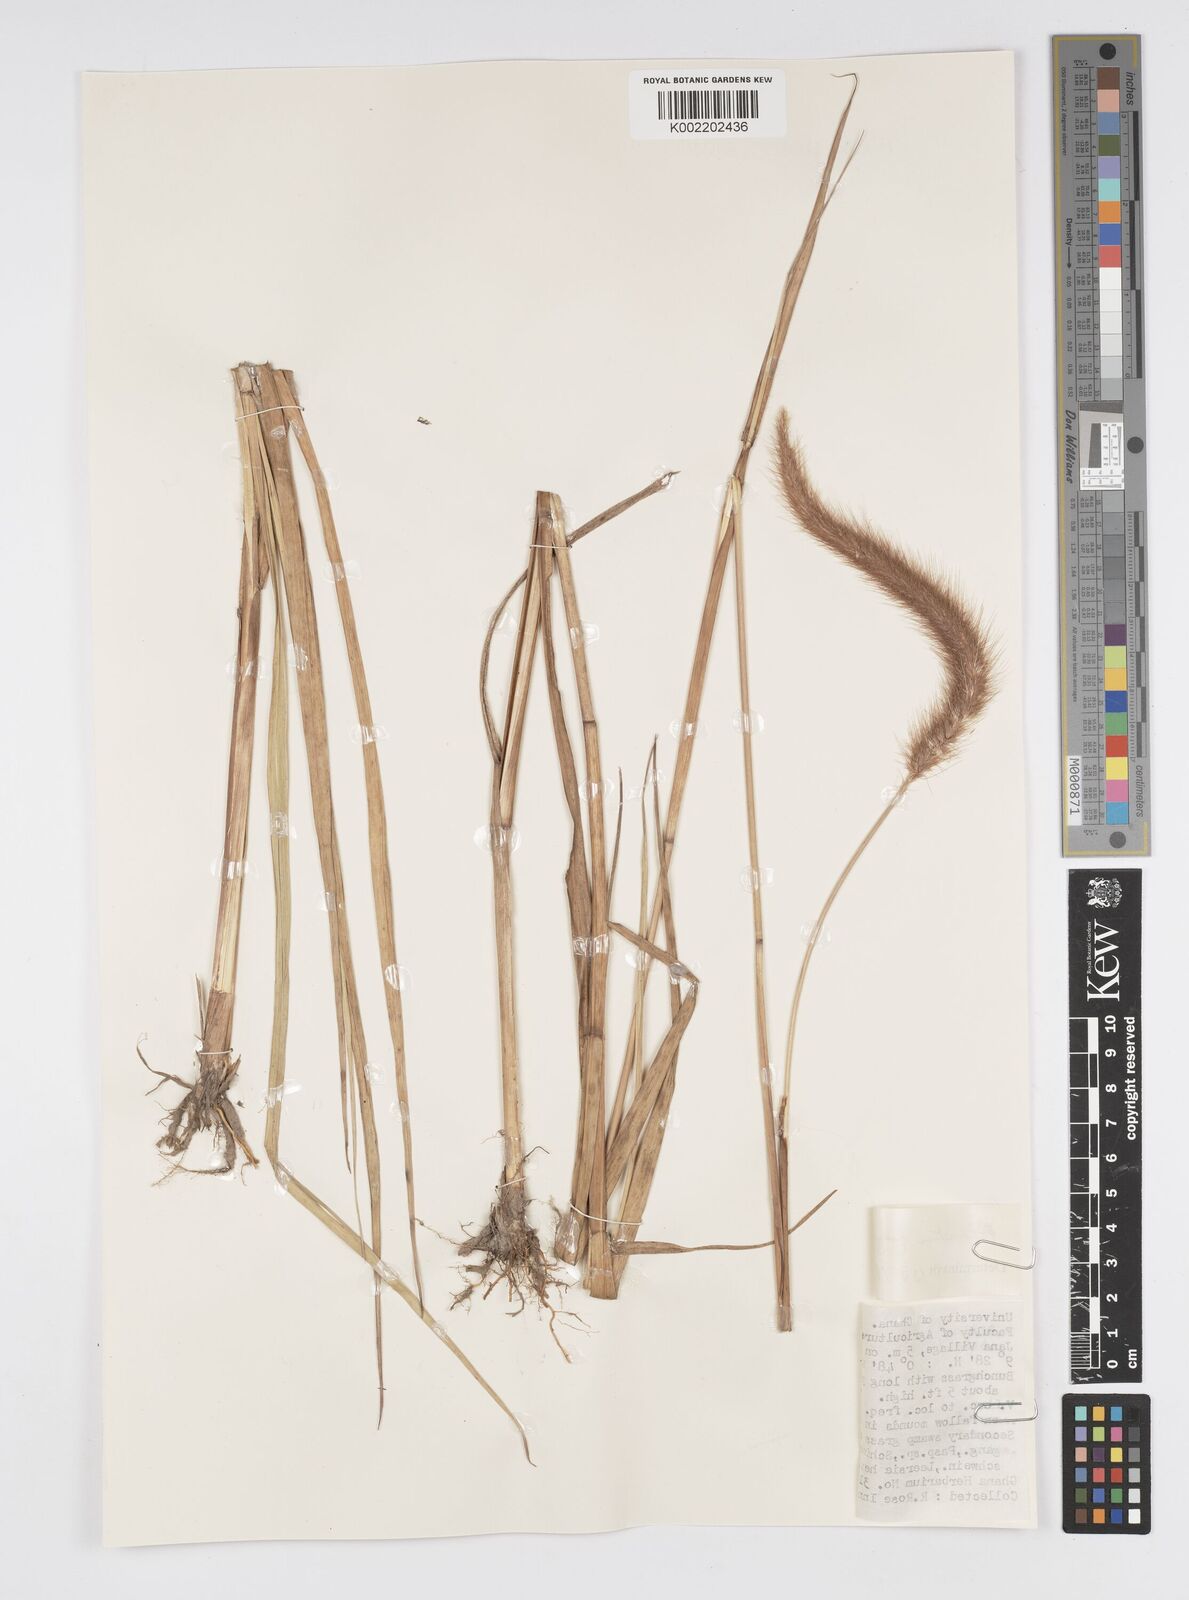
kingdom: Plantae
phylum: Tracheophyta
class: Liliopsida
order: Poales
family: Poaceae
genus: Setaria
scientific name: Setaria parviflora
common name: Knotroot bristle-grass
